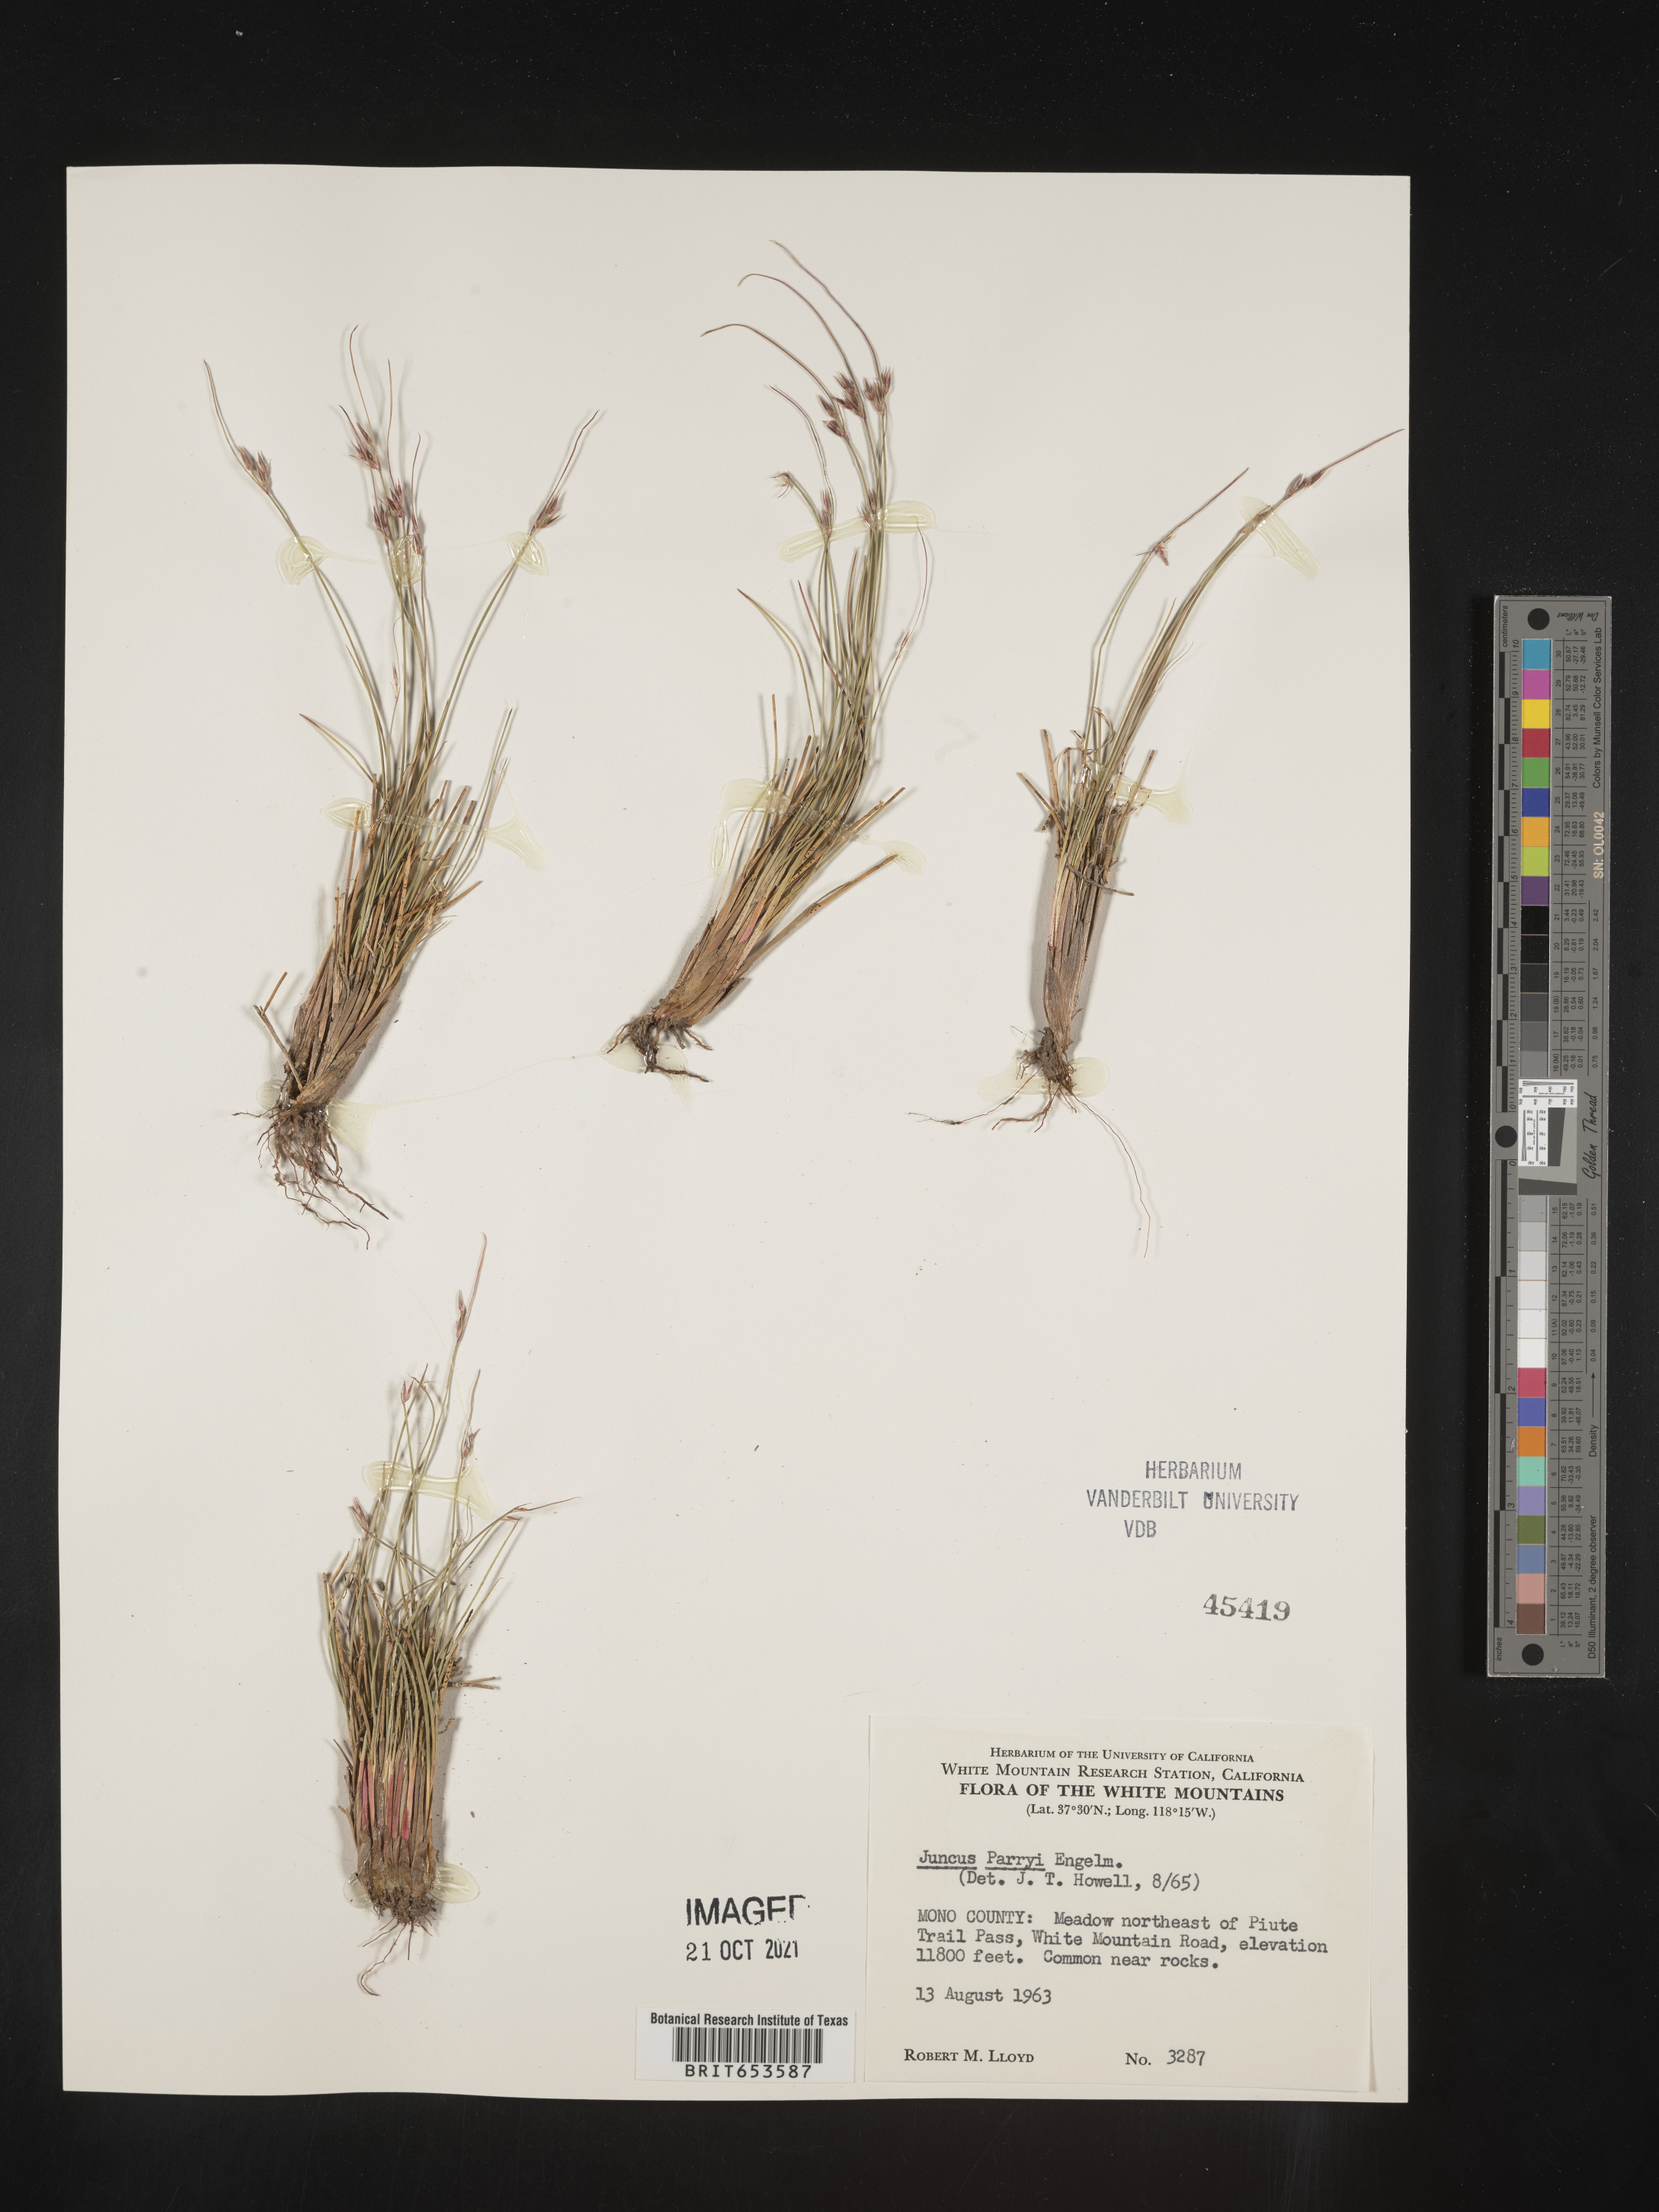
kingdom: Plantae
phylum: Tracheophyta
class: Liliopsida
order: Poales
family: Juncaceae
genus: Juncus
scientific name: Juncus parryi
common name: Parry's rush
